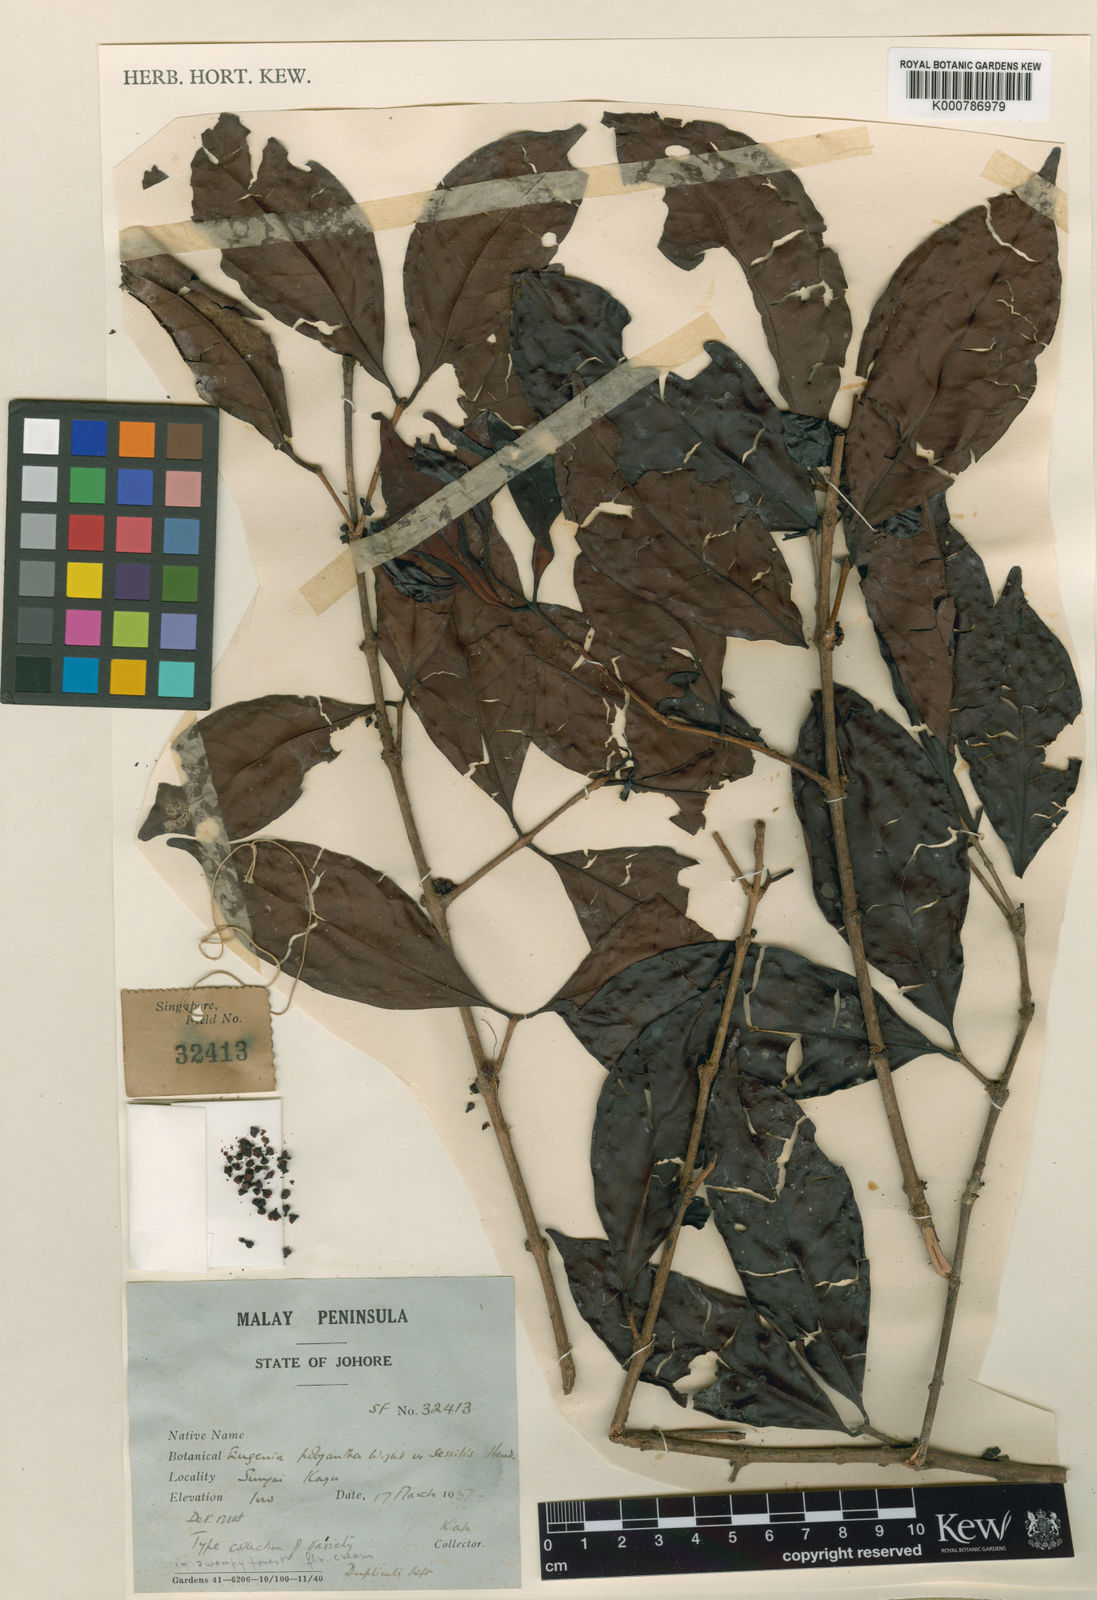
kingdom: Plantae
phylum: Tracheophyta
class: Magnoliopsida
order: Myrtales
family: Myrtaceae
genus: Syzygium
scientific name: Syzygium polyanthum
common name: Indonesian bayleaf
